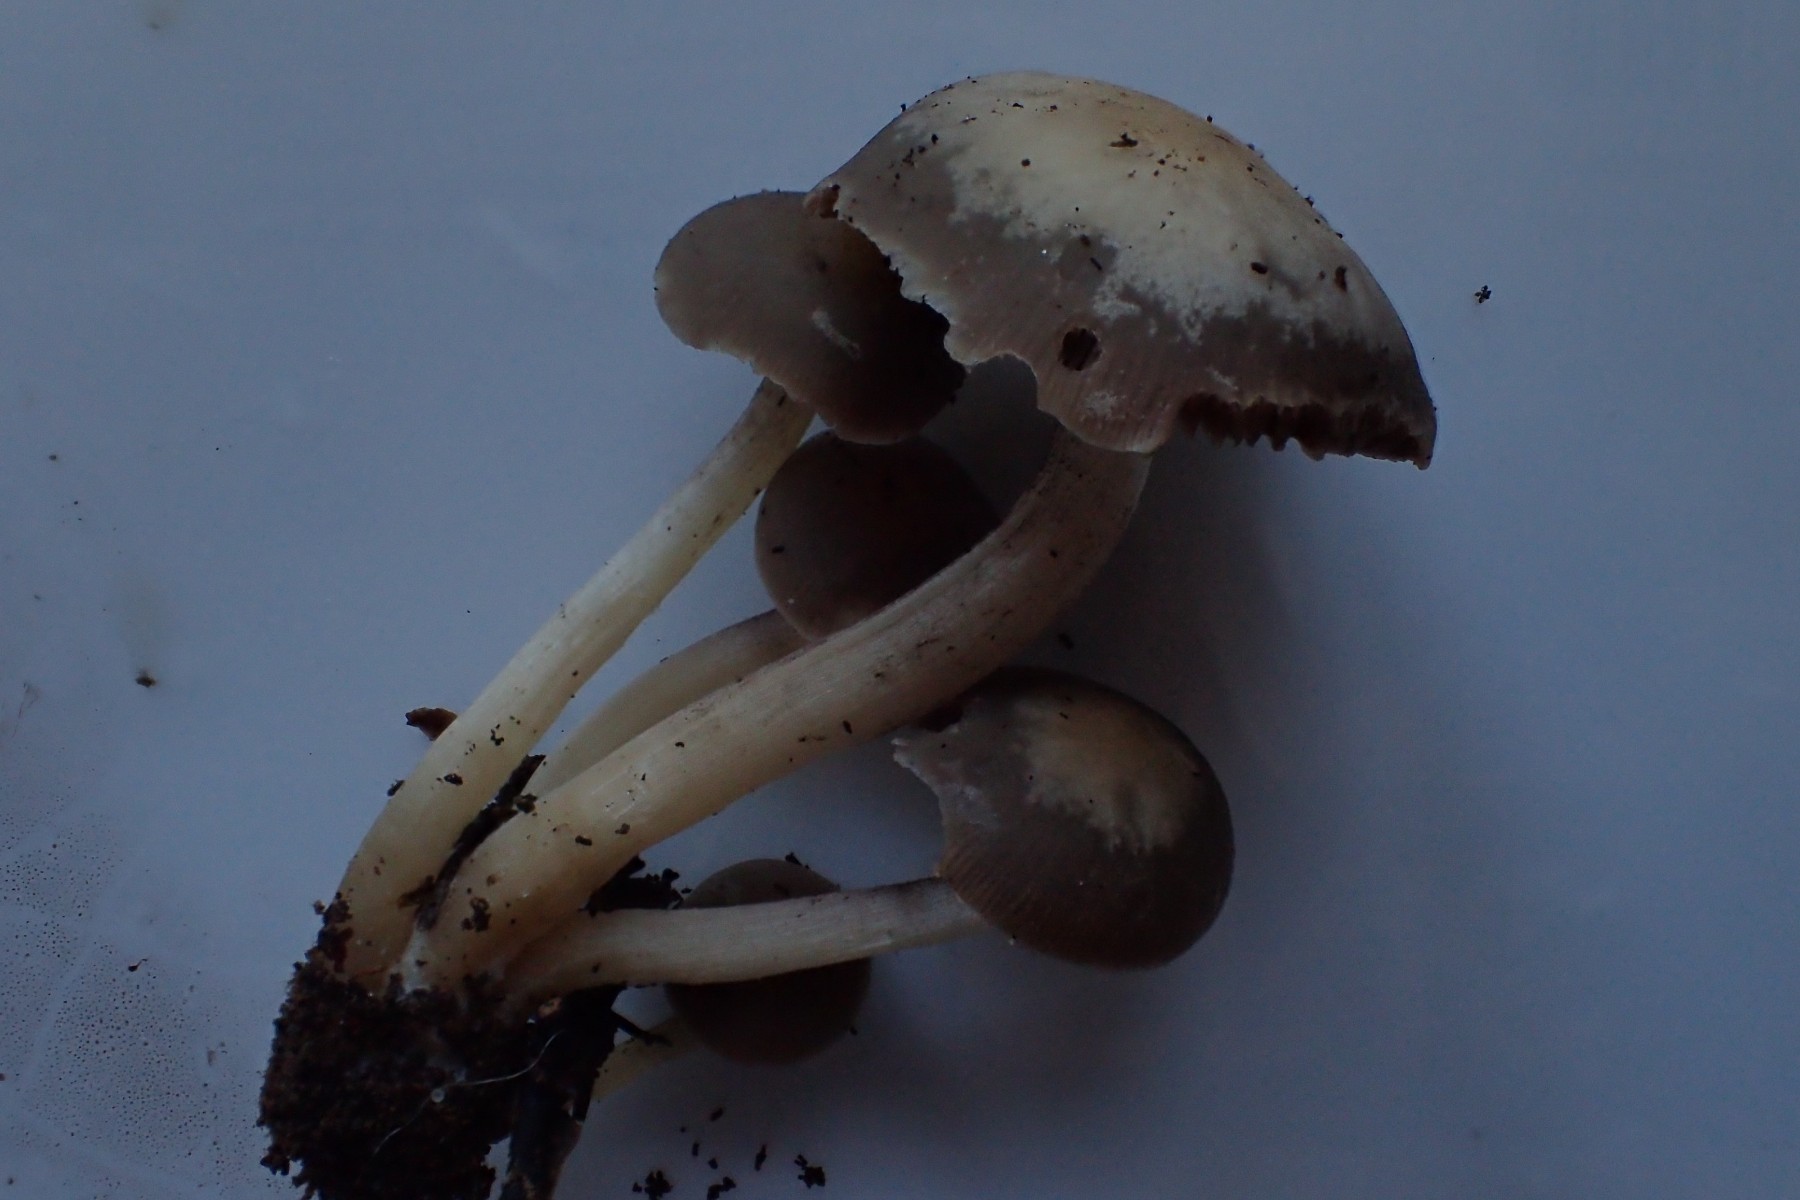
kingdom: Fungi
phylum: Basidiomycota
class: Agaricomycetes
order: Agaricales
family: Psathyrellaceae
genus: Homophron
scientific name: Homophron cernuum
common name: hvidlig mørkhat
